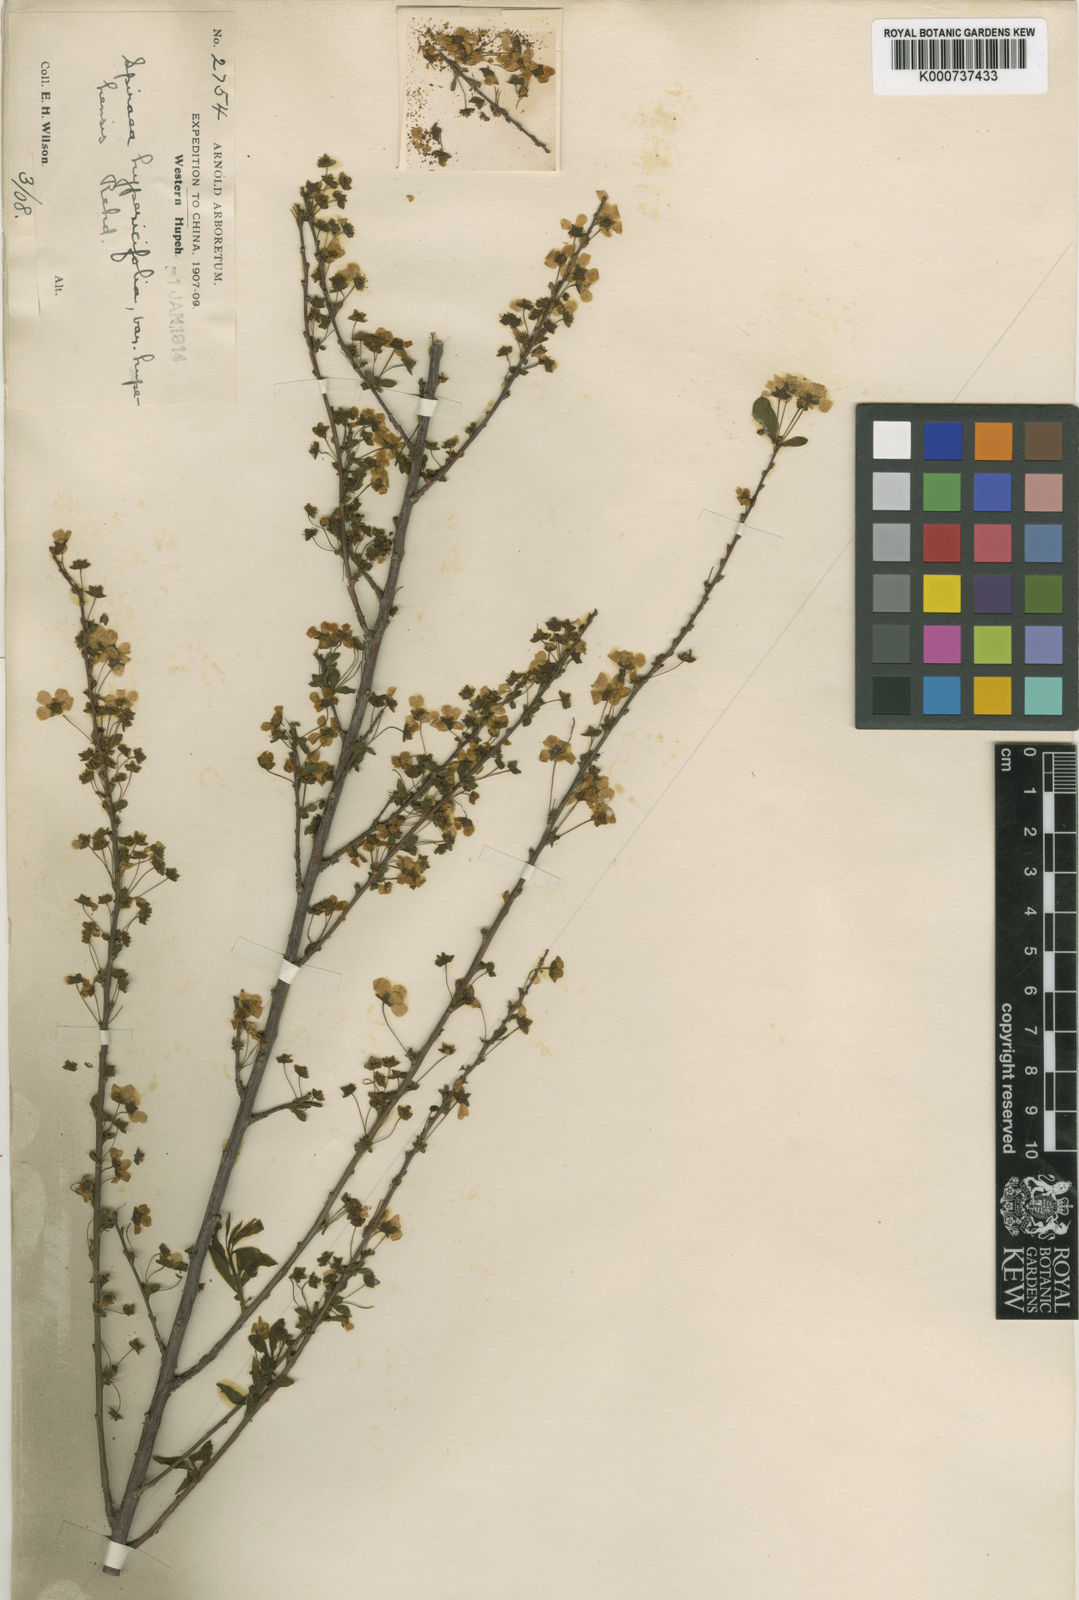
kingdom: Plantae
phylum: Tracheophyta
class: Magnoliopsida
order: Rosales
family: Rosaceae
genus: Spiraea
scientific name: Spiraea hypericifolia
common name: Iberian spirea
